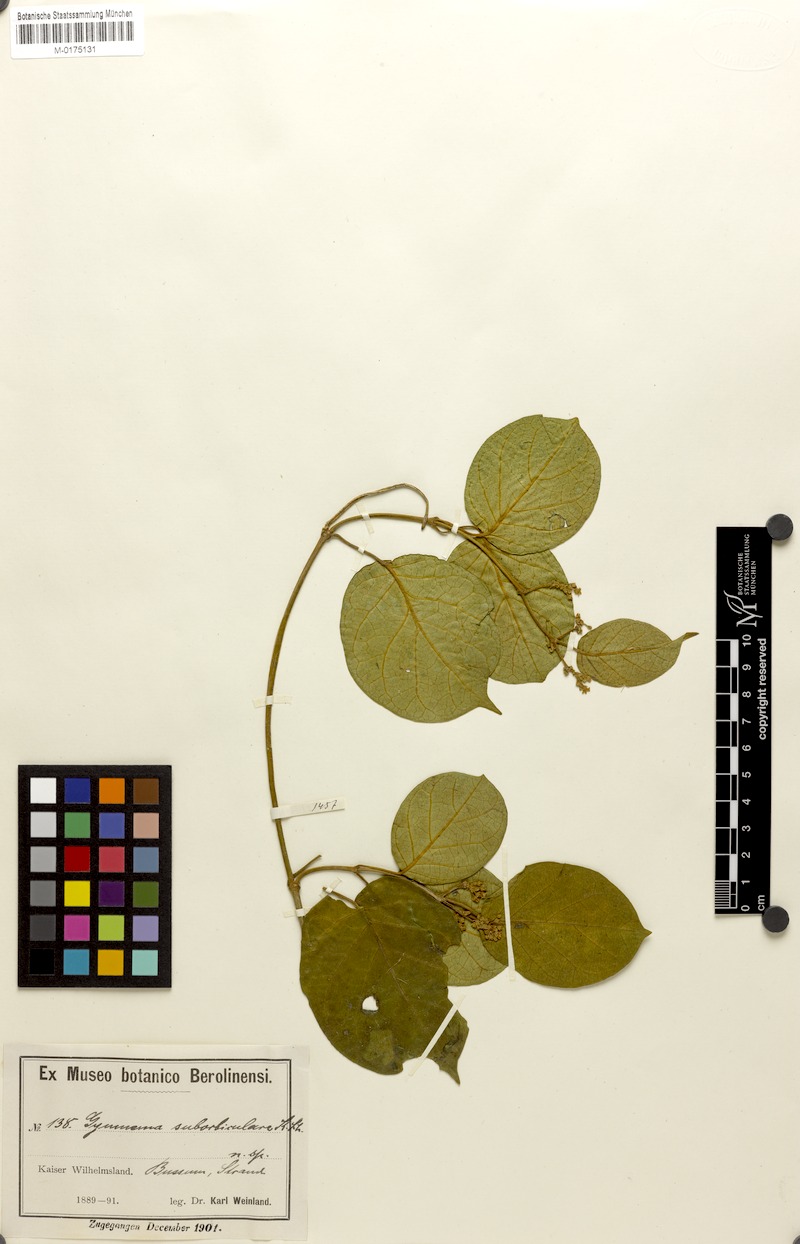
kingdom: Plantae
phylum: Tracheophyta
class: Magnoliopsida
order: Gentianales
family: Apocynaceae
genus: Gymnema
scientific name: Gymnema suborbiculare
